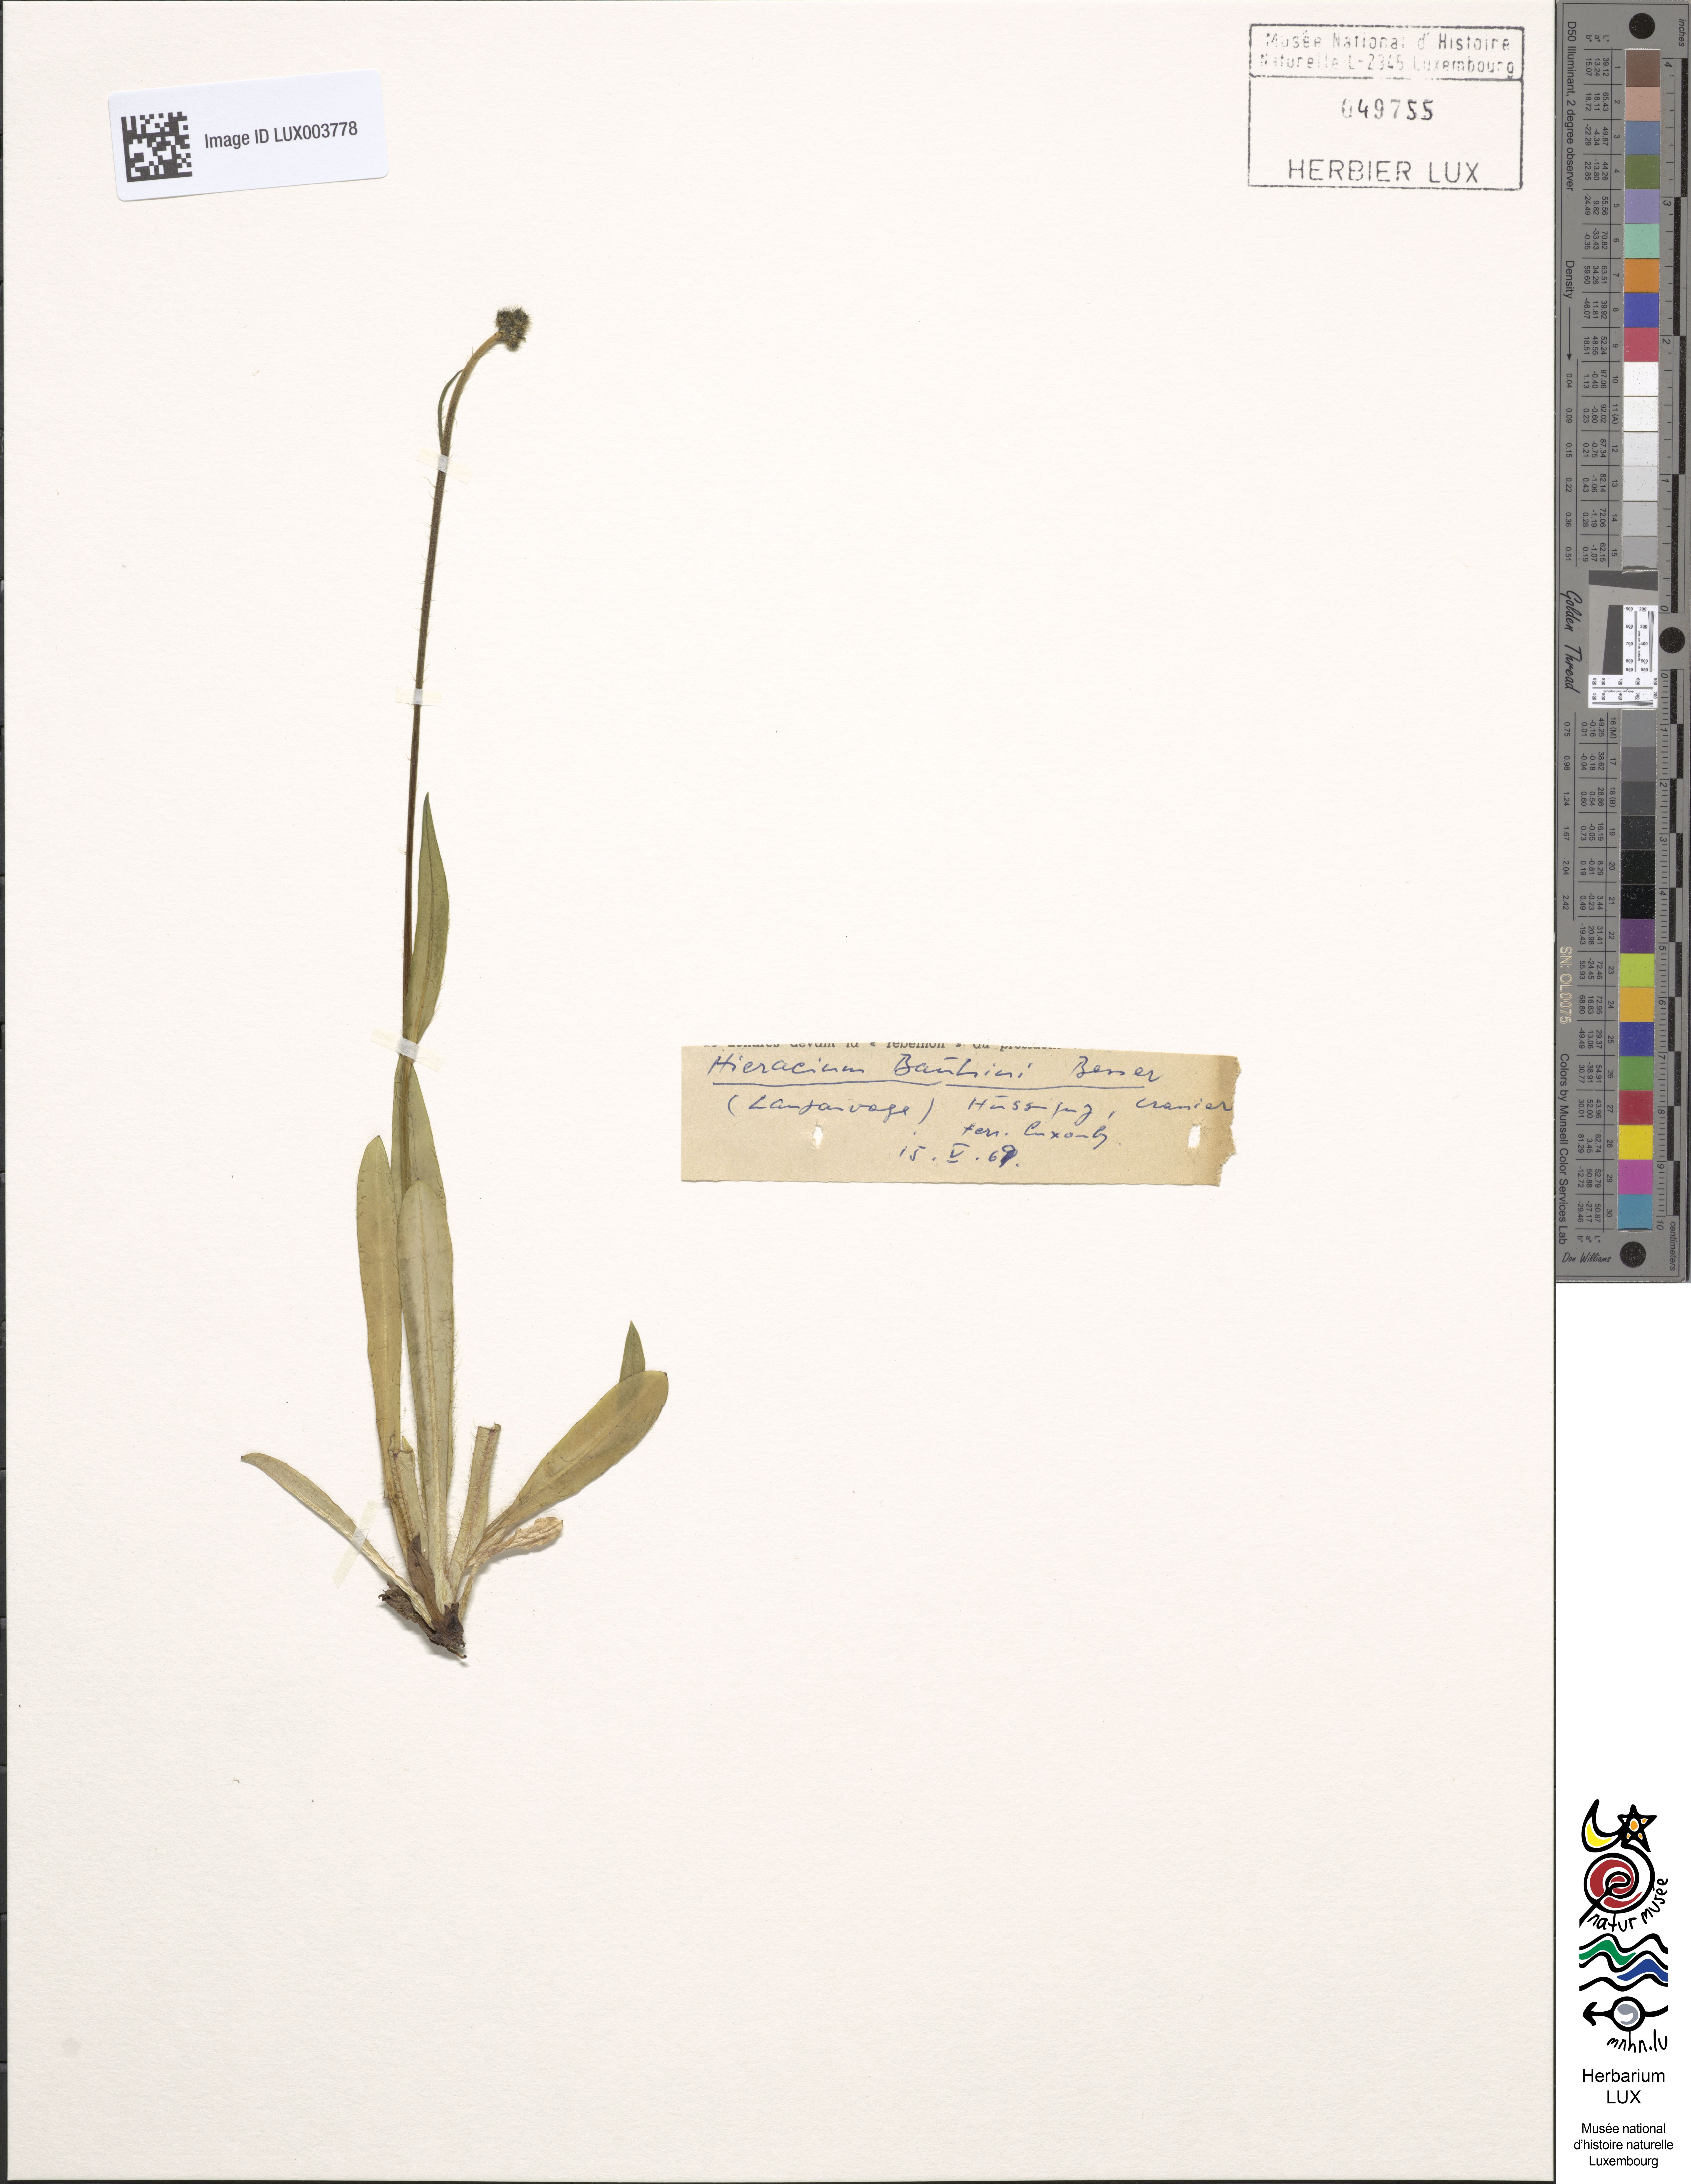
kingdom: Plantae
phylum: Tracheophyta
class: Magnoliopsida
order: Asterales
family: Asteraceae
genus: Pilosella
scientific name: Pilosella bauhini
